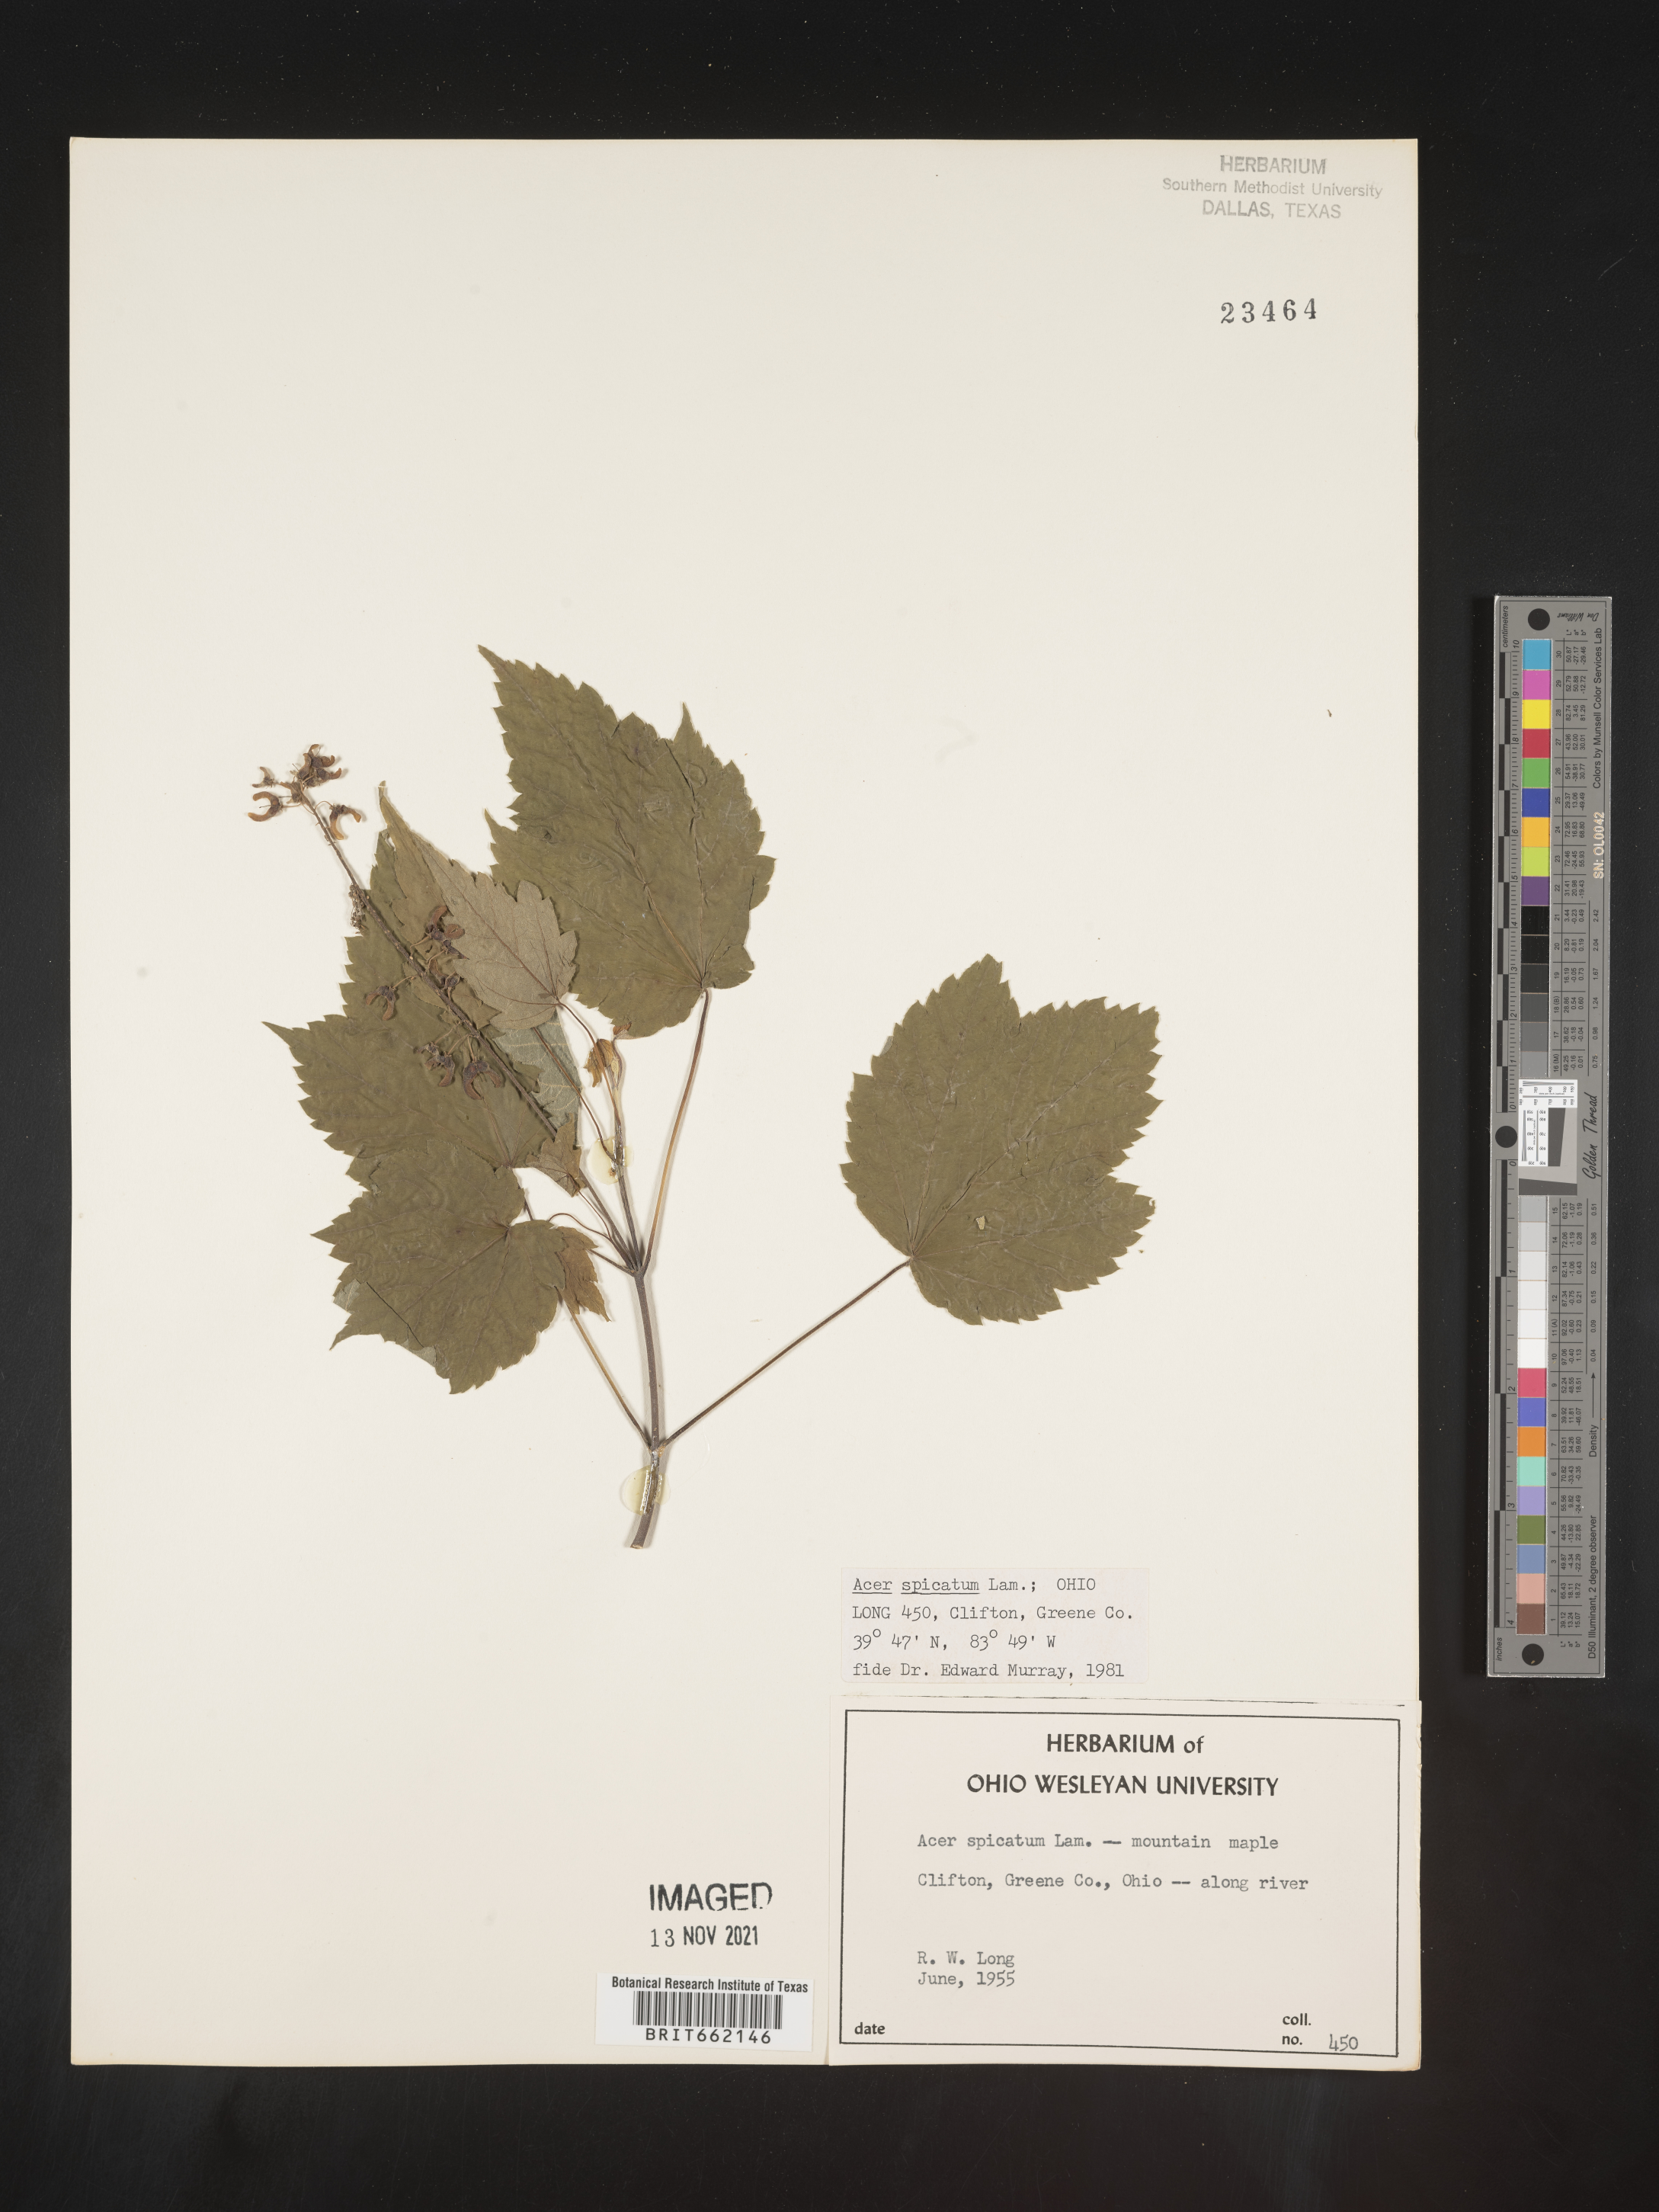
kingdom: Plantae
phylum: Tracheophyta
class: Magnoliopsida
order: Sapindales
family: Sapindaceae
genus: Acer
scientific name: Acer spicatum
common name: Mountain maple
